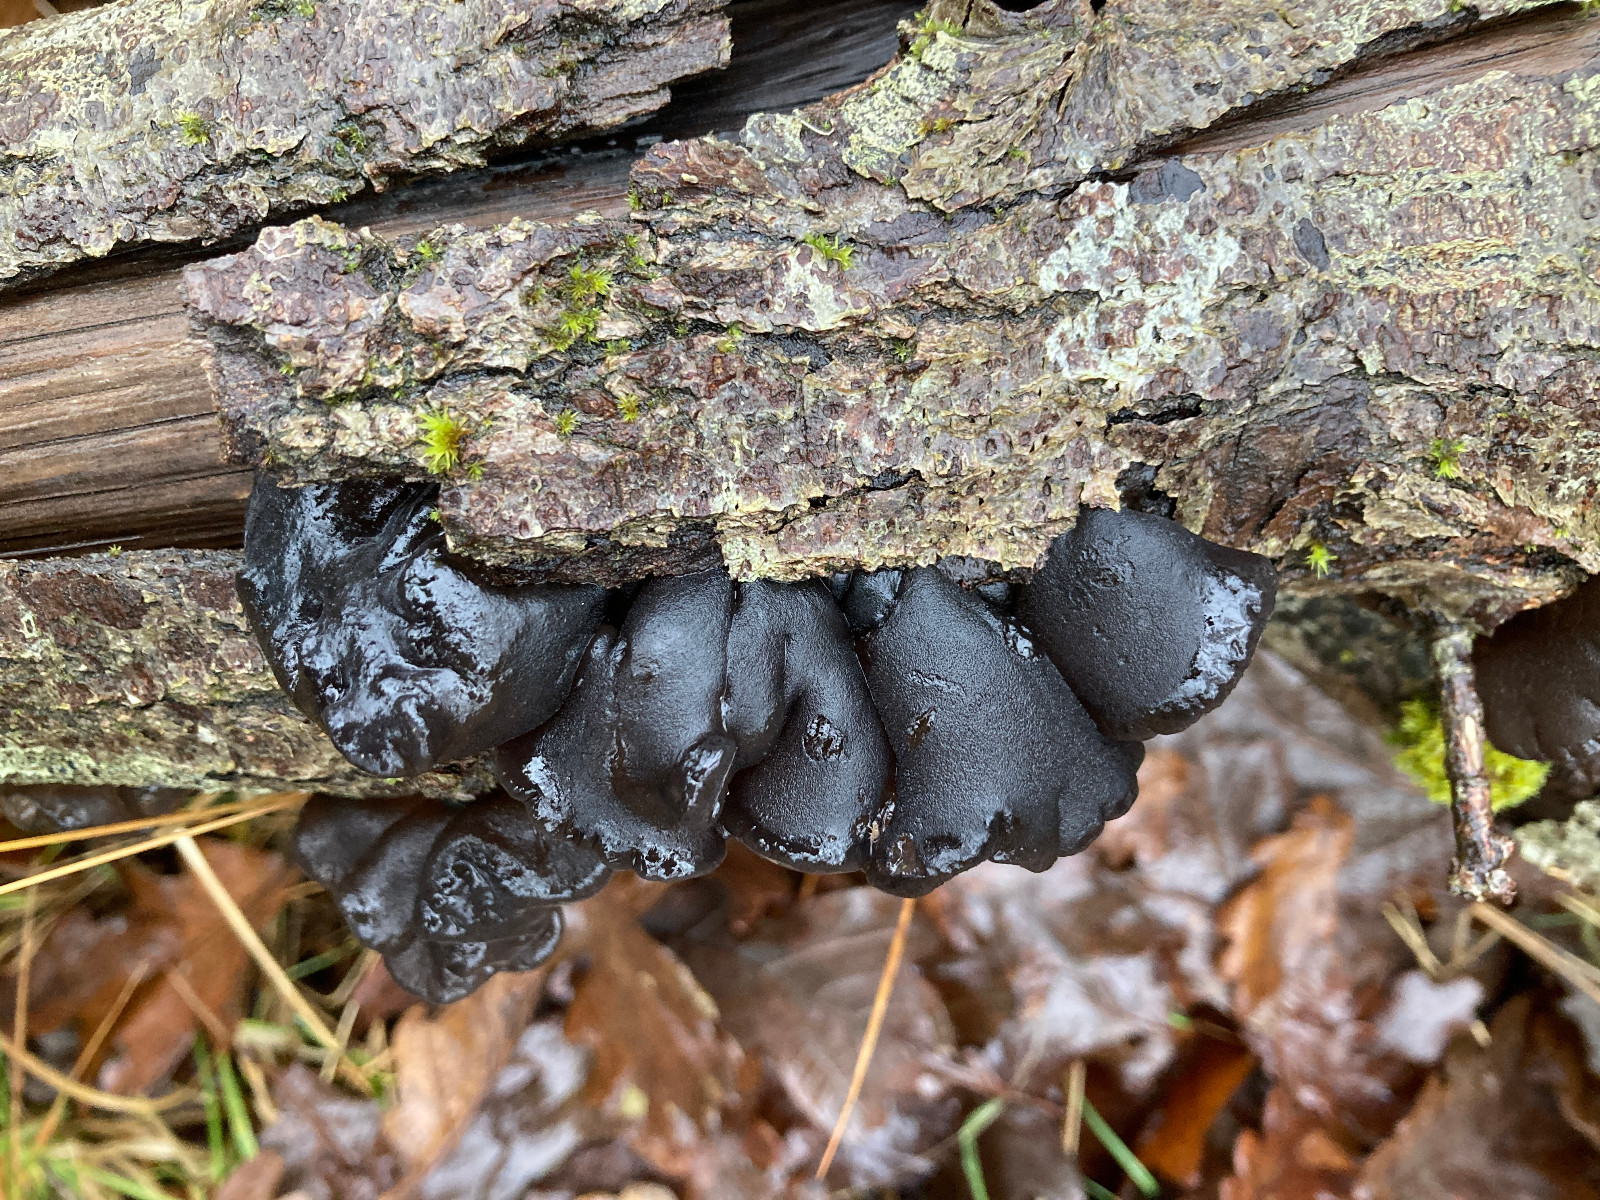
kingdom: Fungi
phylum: Basidiomycota
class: Agaricomycetes
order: Auriculariales
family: Auriculariaceae
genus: Exidia
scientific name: Exidia glandulosa
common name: ege-bævretop
